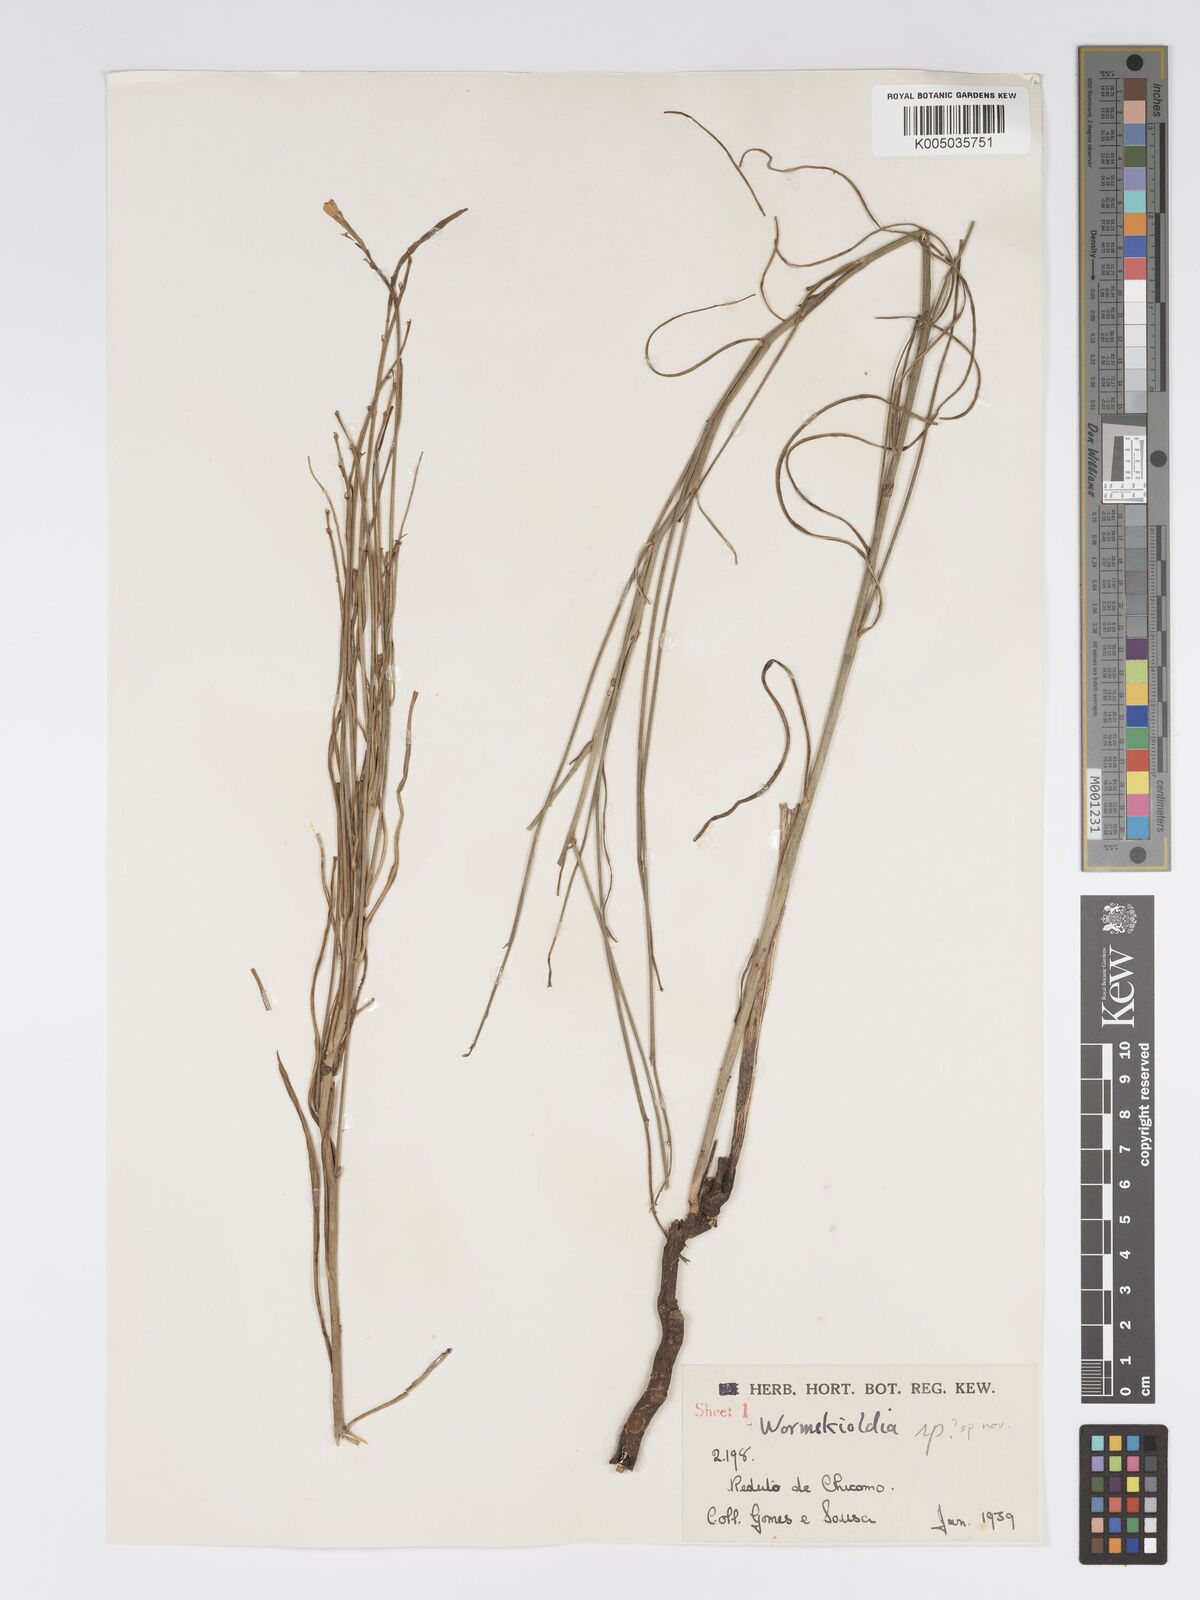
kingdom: Plantae
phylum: Tracheophyta
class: Magnoliopsida
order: Malpighiales
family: Turneraceae
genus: Tricliceras
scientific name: Tricliceras mossambicense
